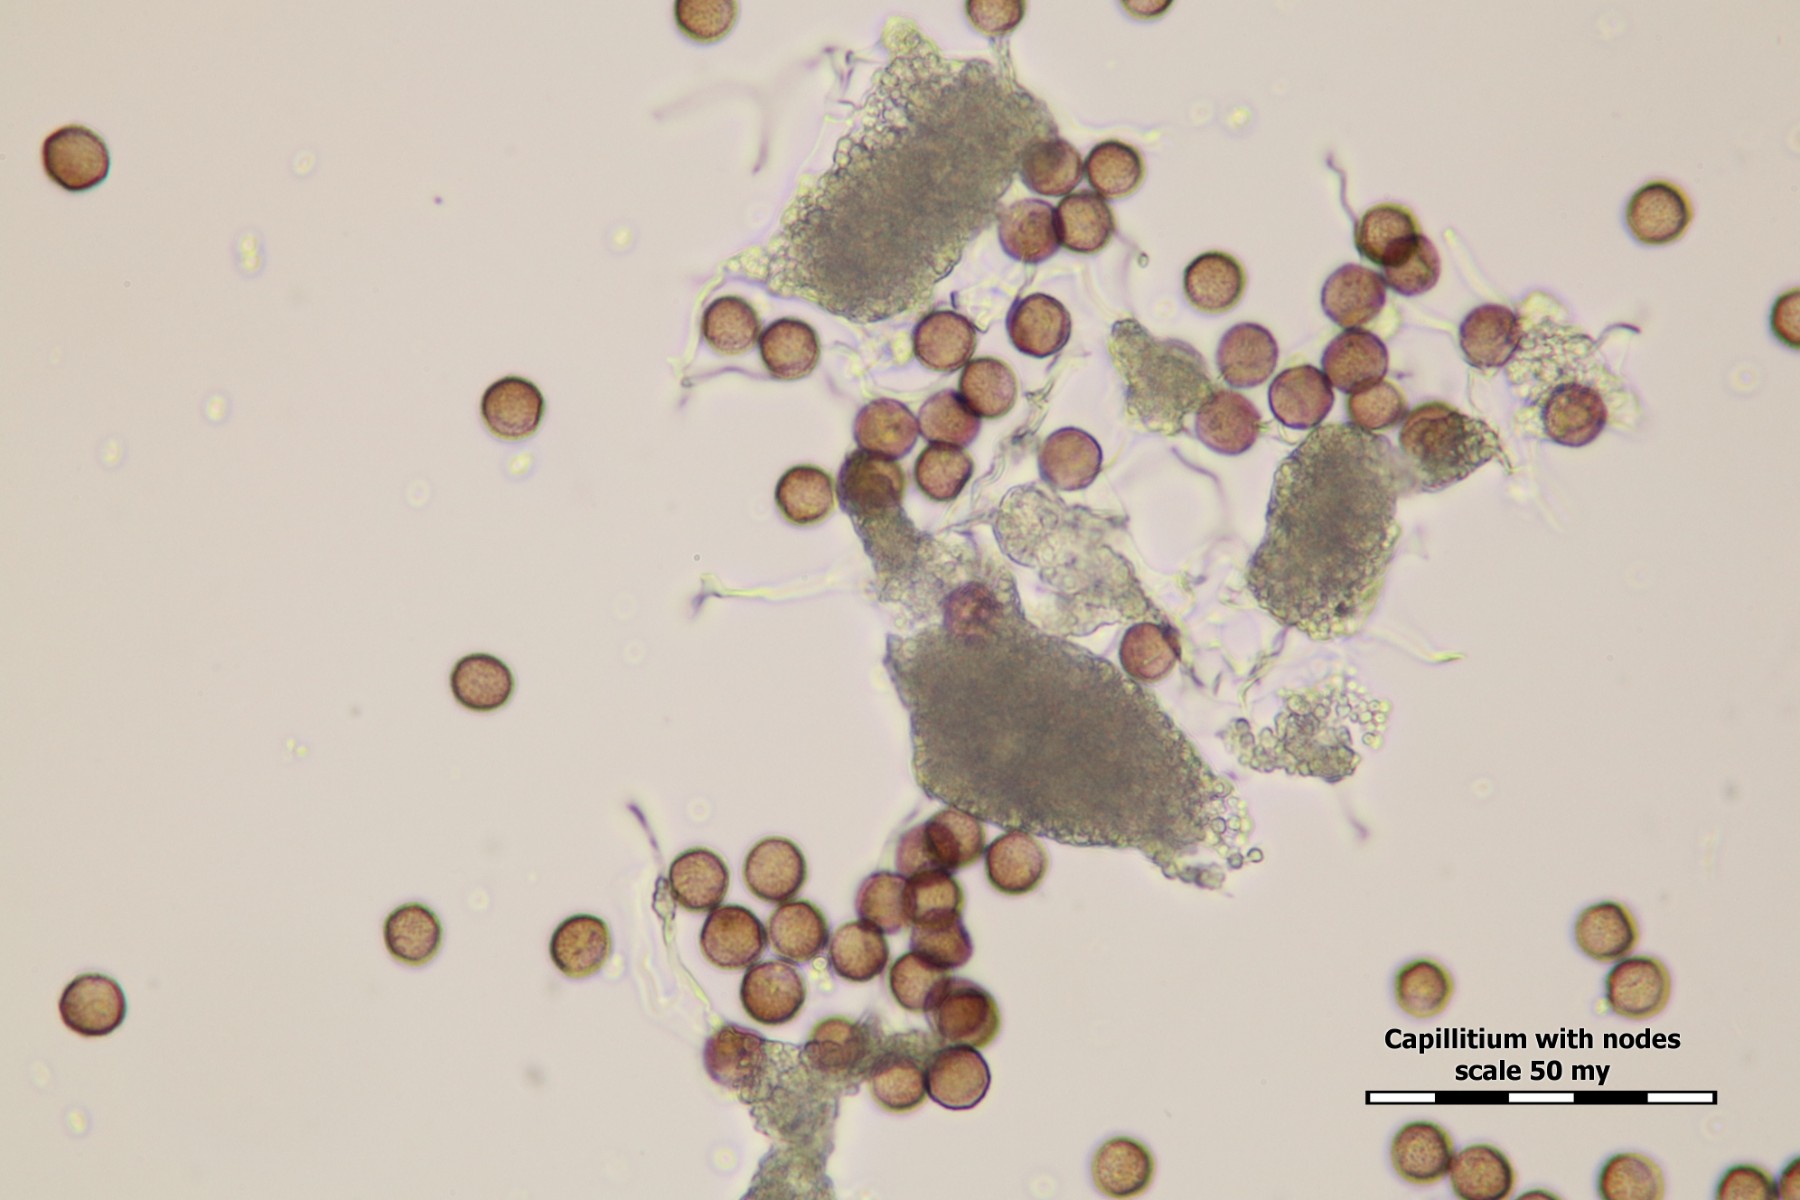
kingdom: Protozoa
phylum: Mycetozoa
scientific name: Mycetozoa
